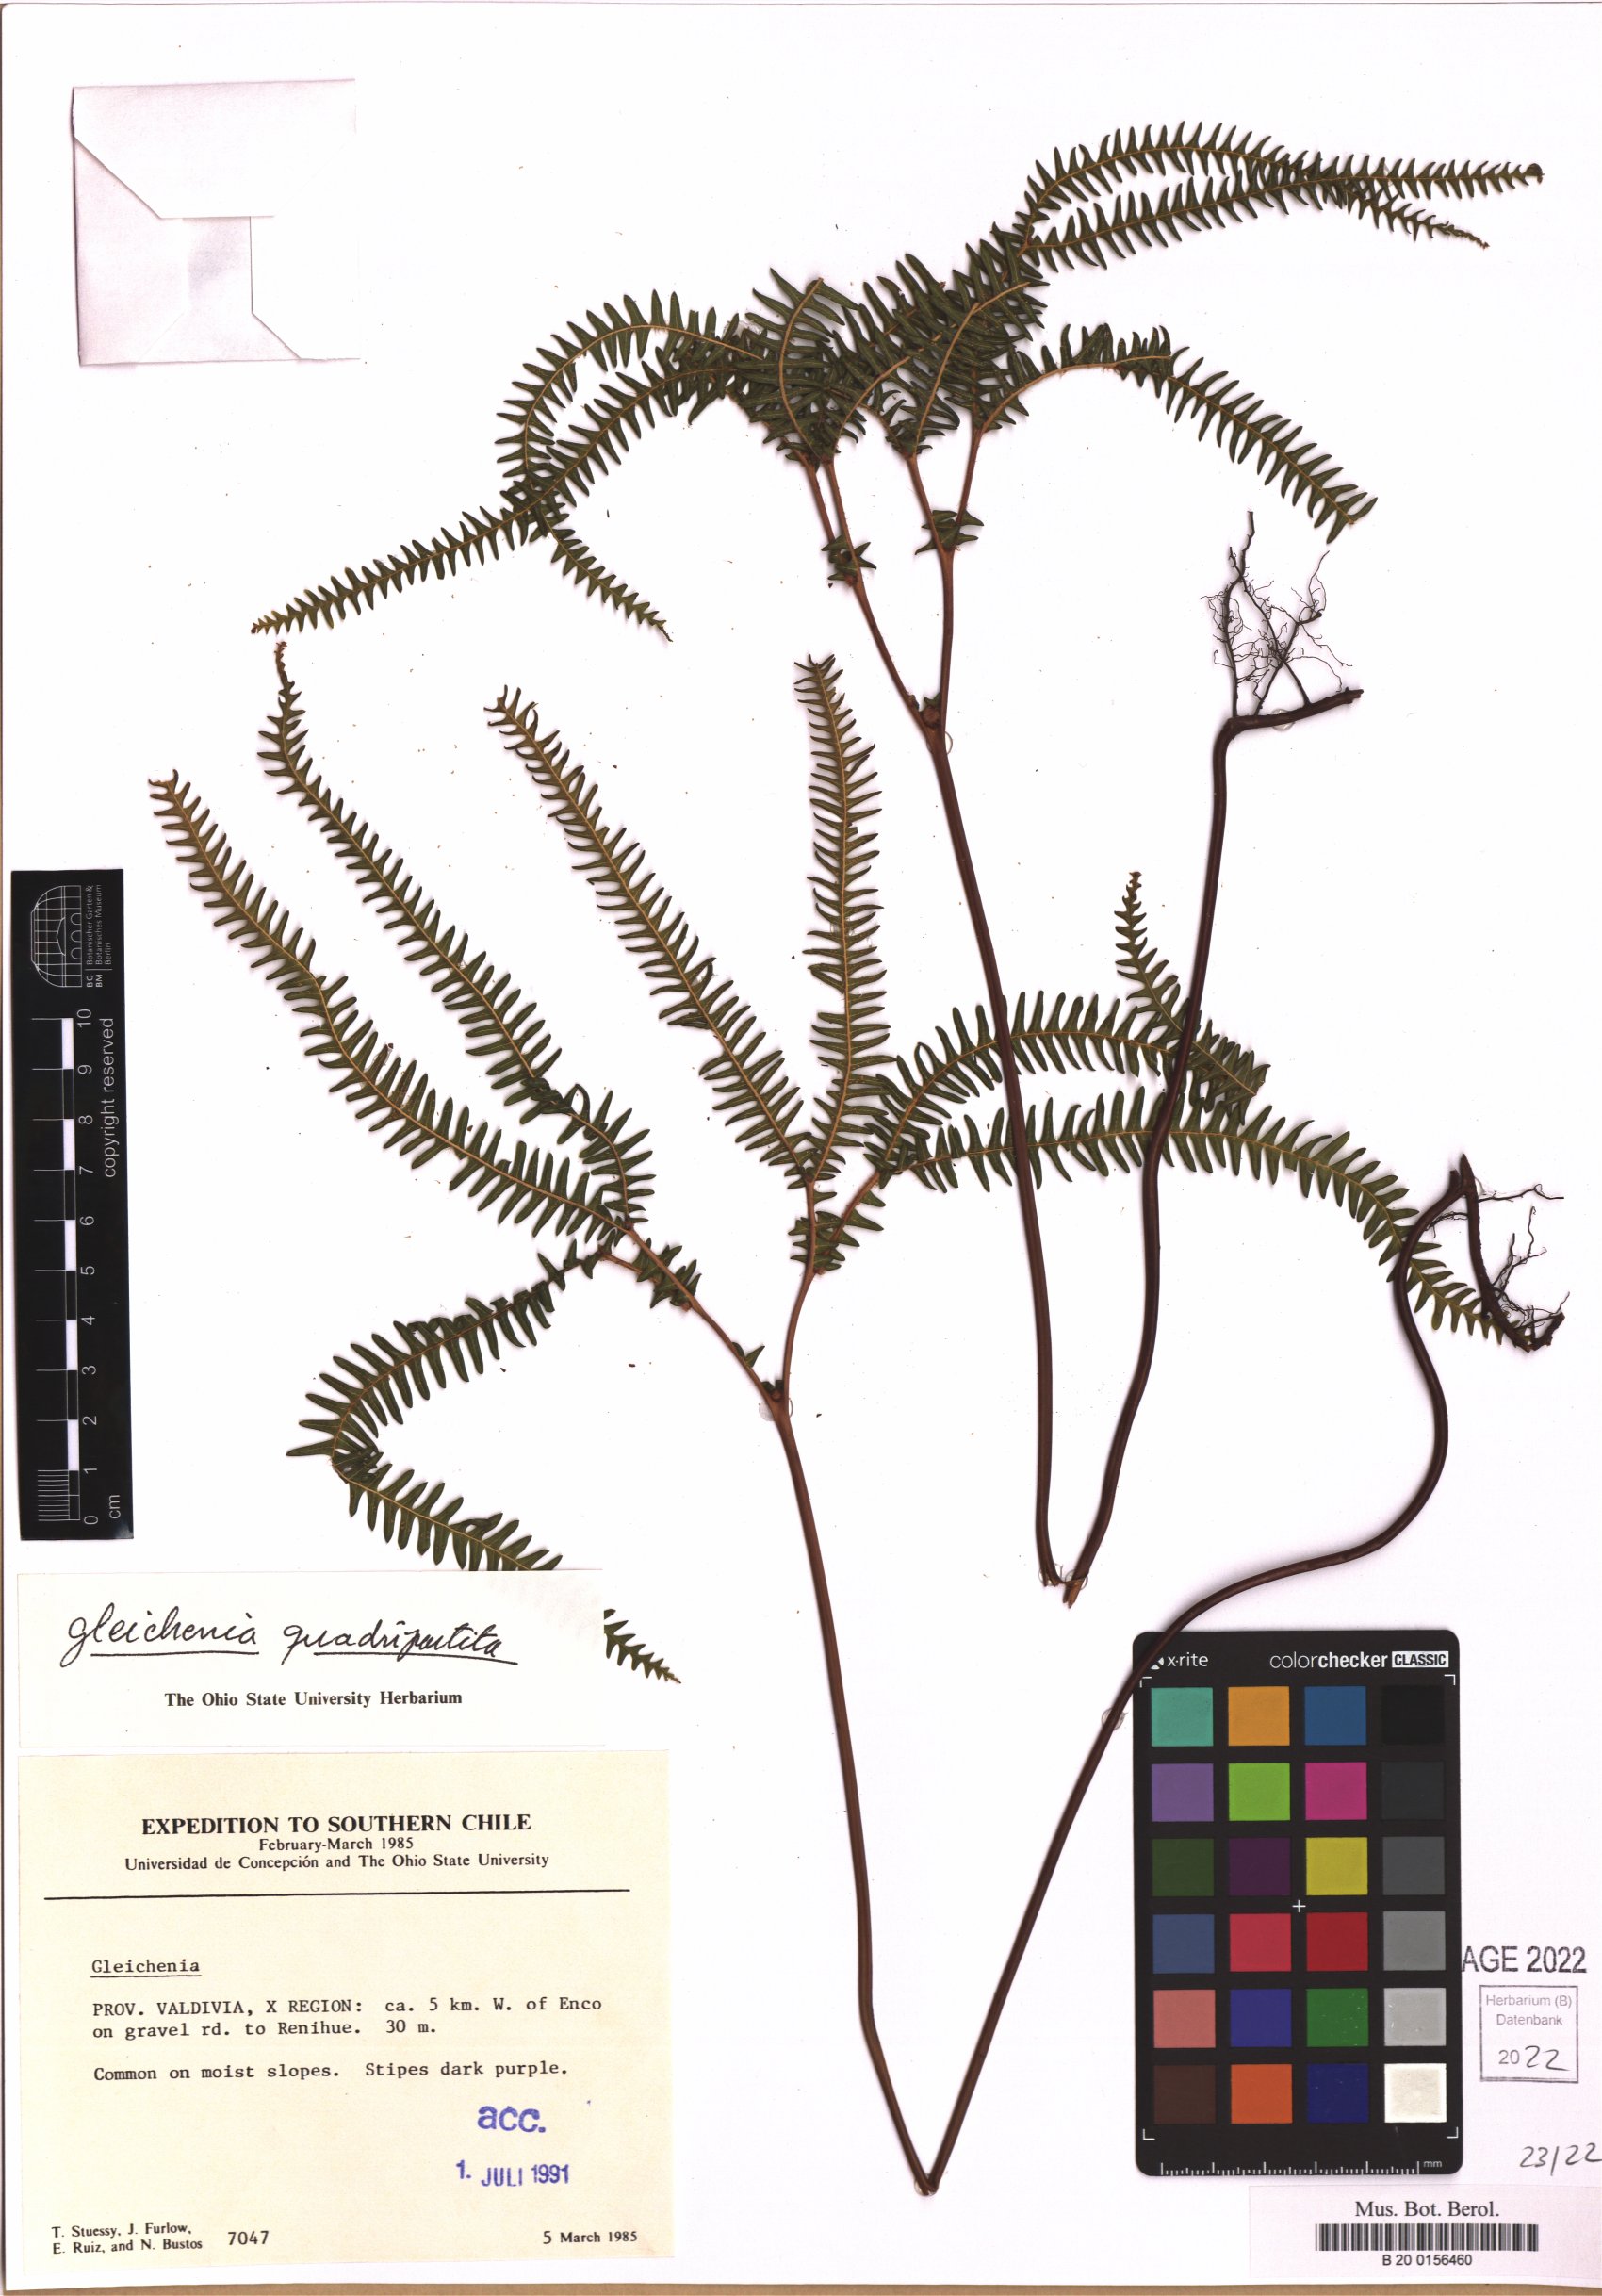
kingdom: Plantae
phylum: Tracheophyta
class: Polypodiopsida
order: Gleicheniales
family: Gleicheniaceae
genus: Sticherus
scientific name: Sticherus quadripartitus
